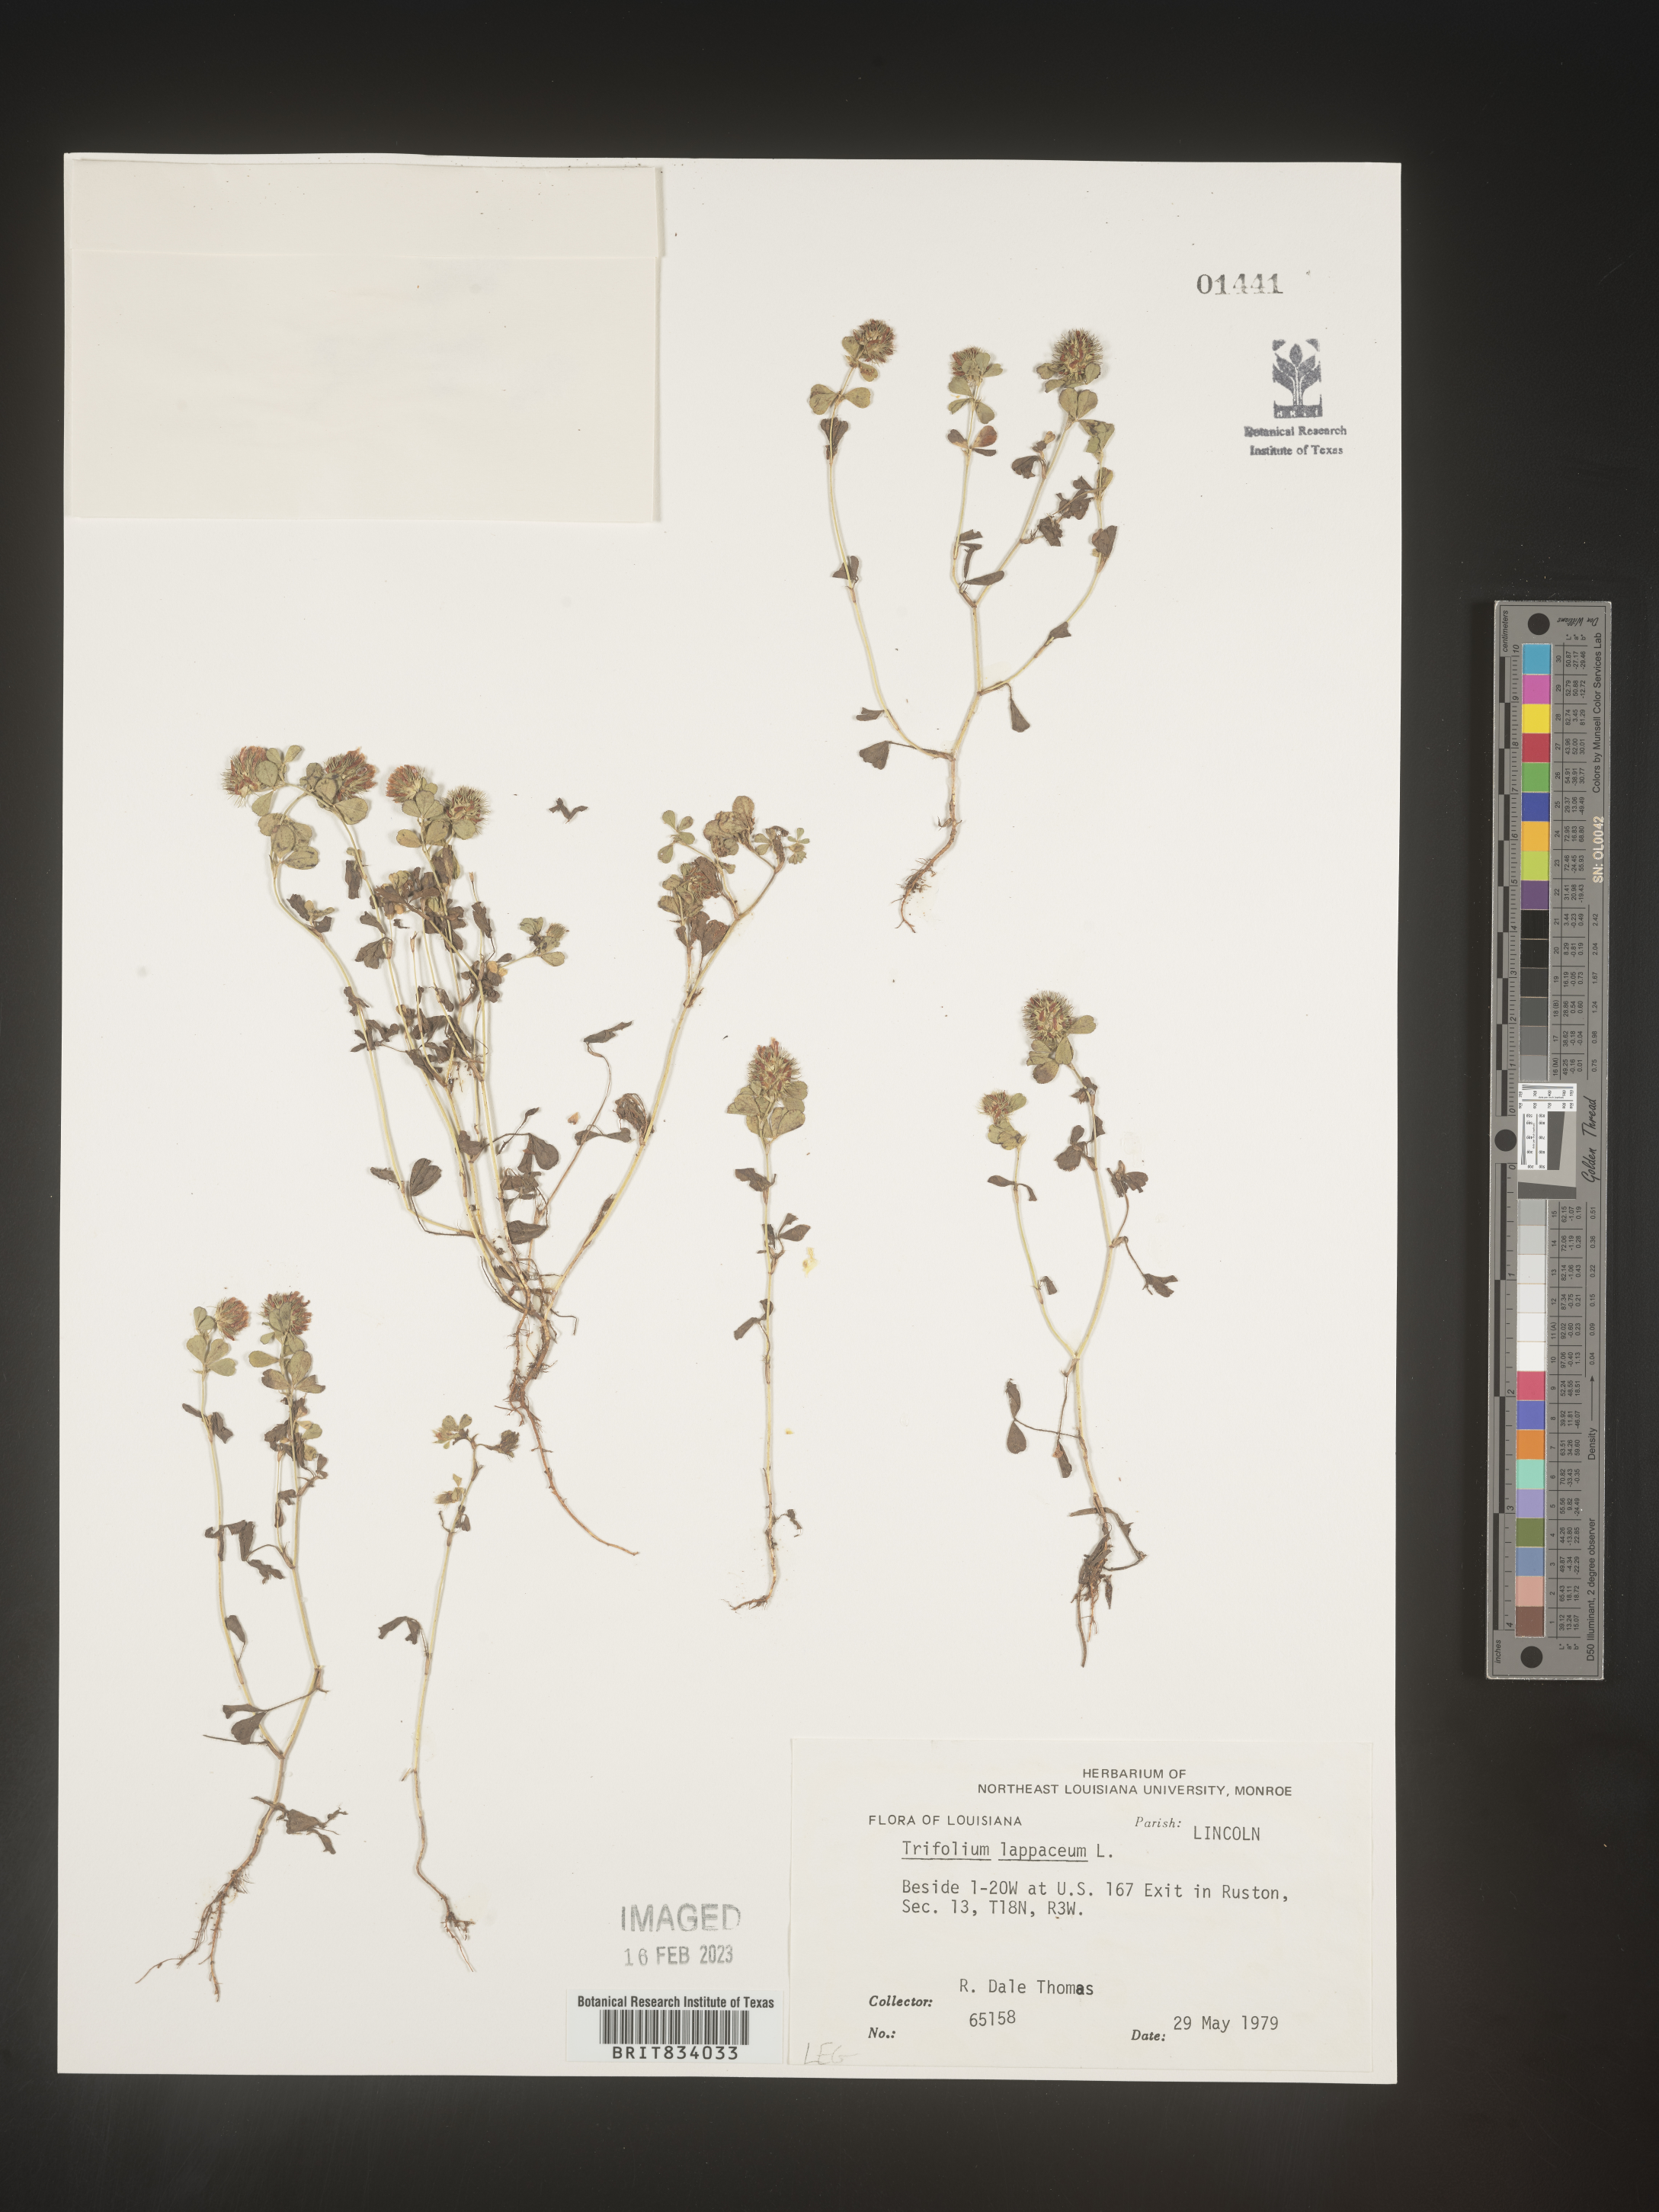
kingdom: Plantae
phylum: Tracheophyta
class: Magnoliopsida
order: Fabales
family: Fabaceae
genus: Trifolium
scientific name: Trifolium
